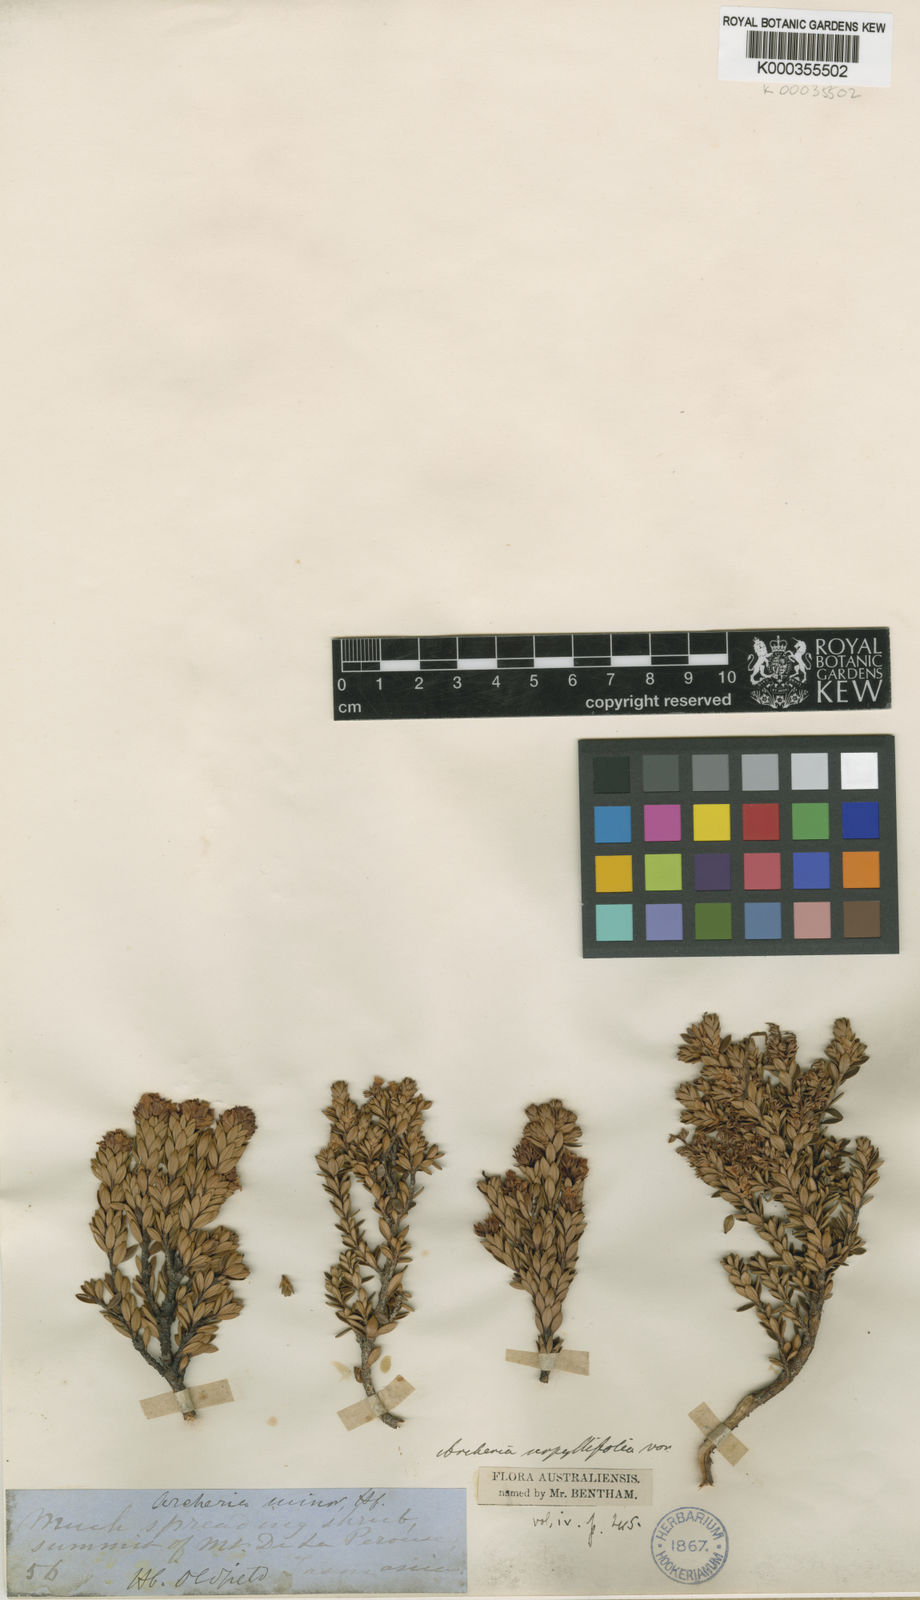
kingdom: Plantae
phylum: Tracheophyta
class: Magnoliopsida
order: Ericales
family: Ericaceae
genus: Archeria
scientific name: Archeria serpyllifolia
